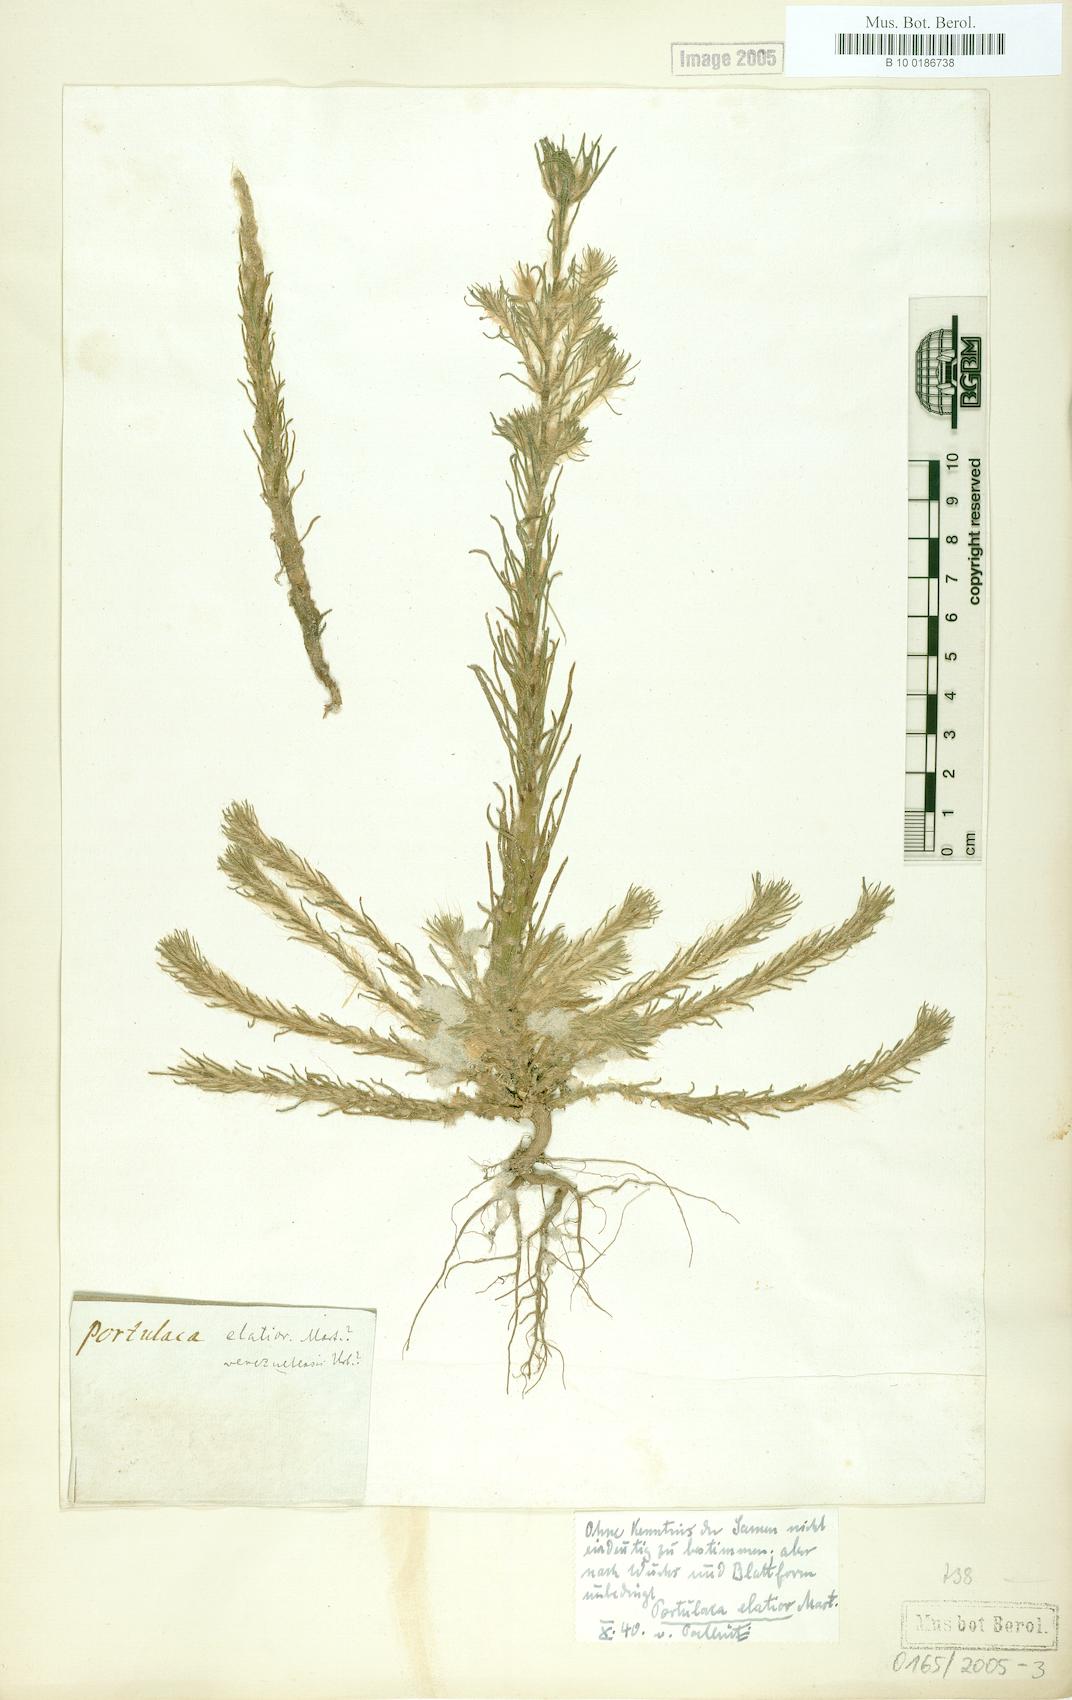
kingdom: Plantae
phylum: Tracheophyta
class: Magnoliopsida
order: Caryophyllales
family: Portulacaceae
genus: Portulaca
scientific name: Portulaca elatior
